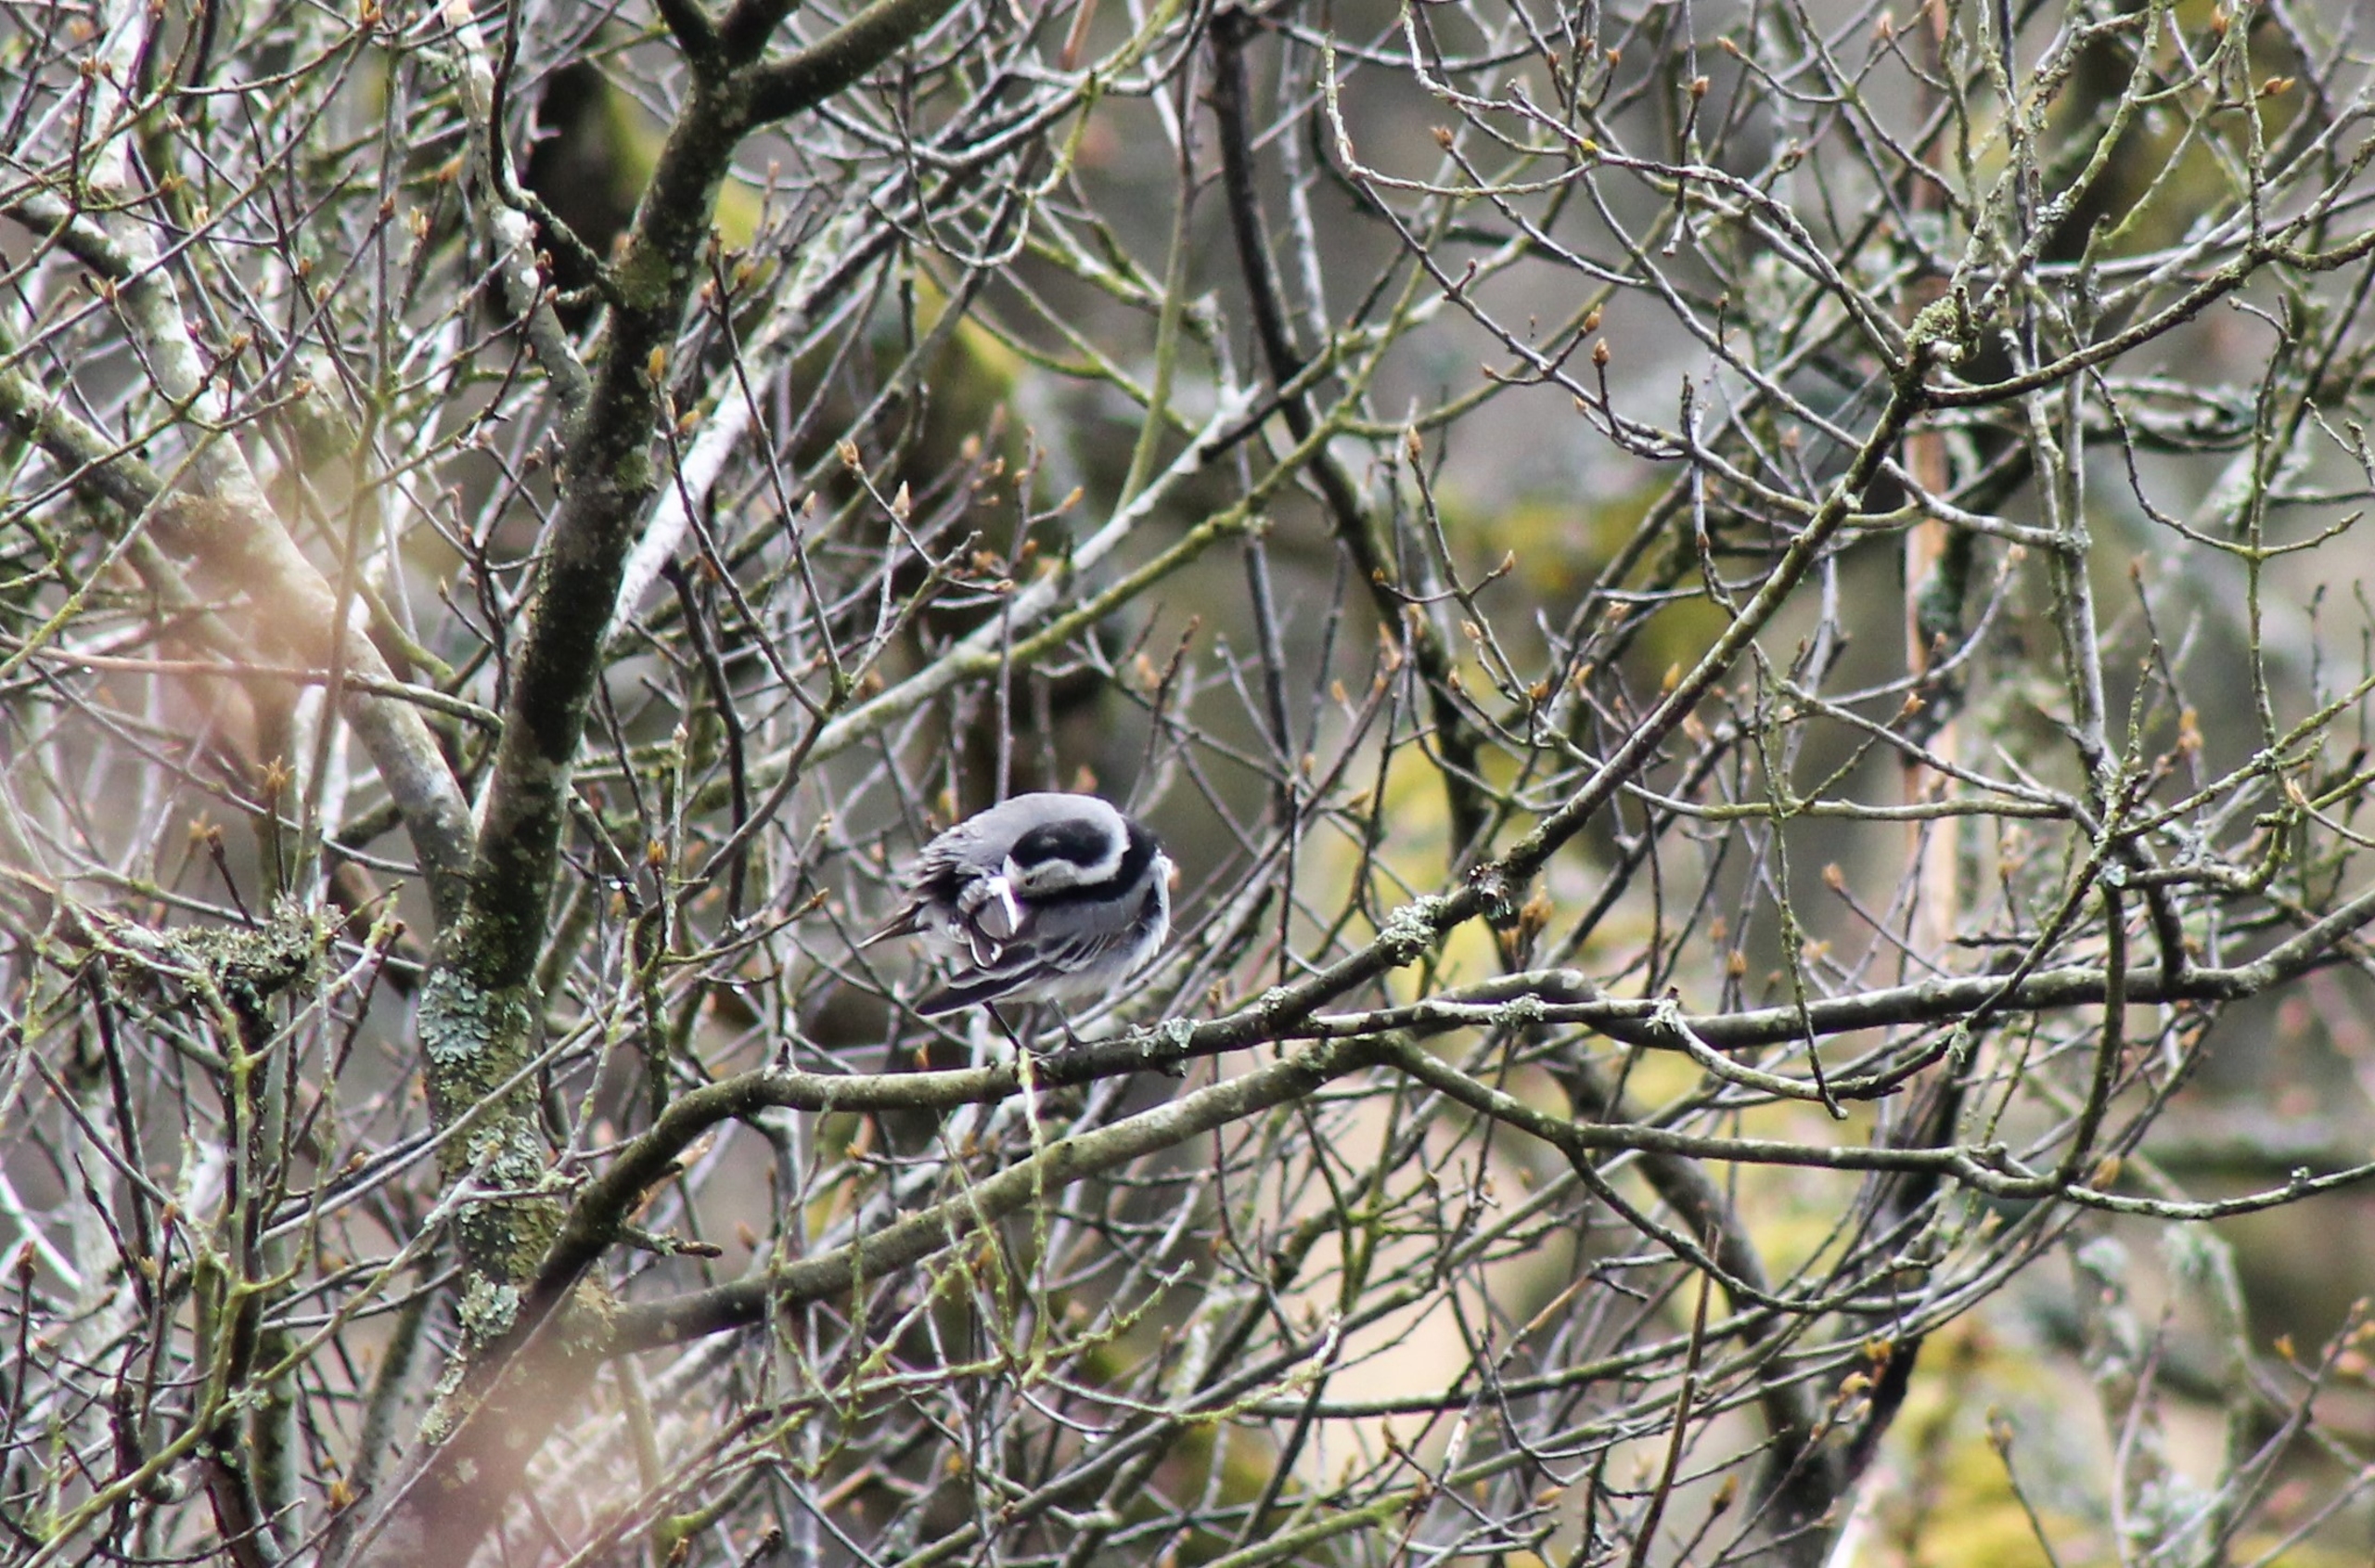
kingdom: Animalia
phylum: Chordata
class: Aves
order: Passeriformes
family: Motacillidae
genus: Motacilla
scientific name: Motacilla alba
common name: Hvid vipstjert
